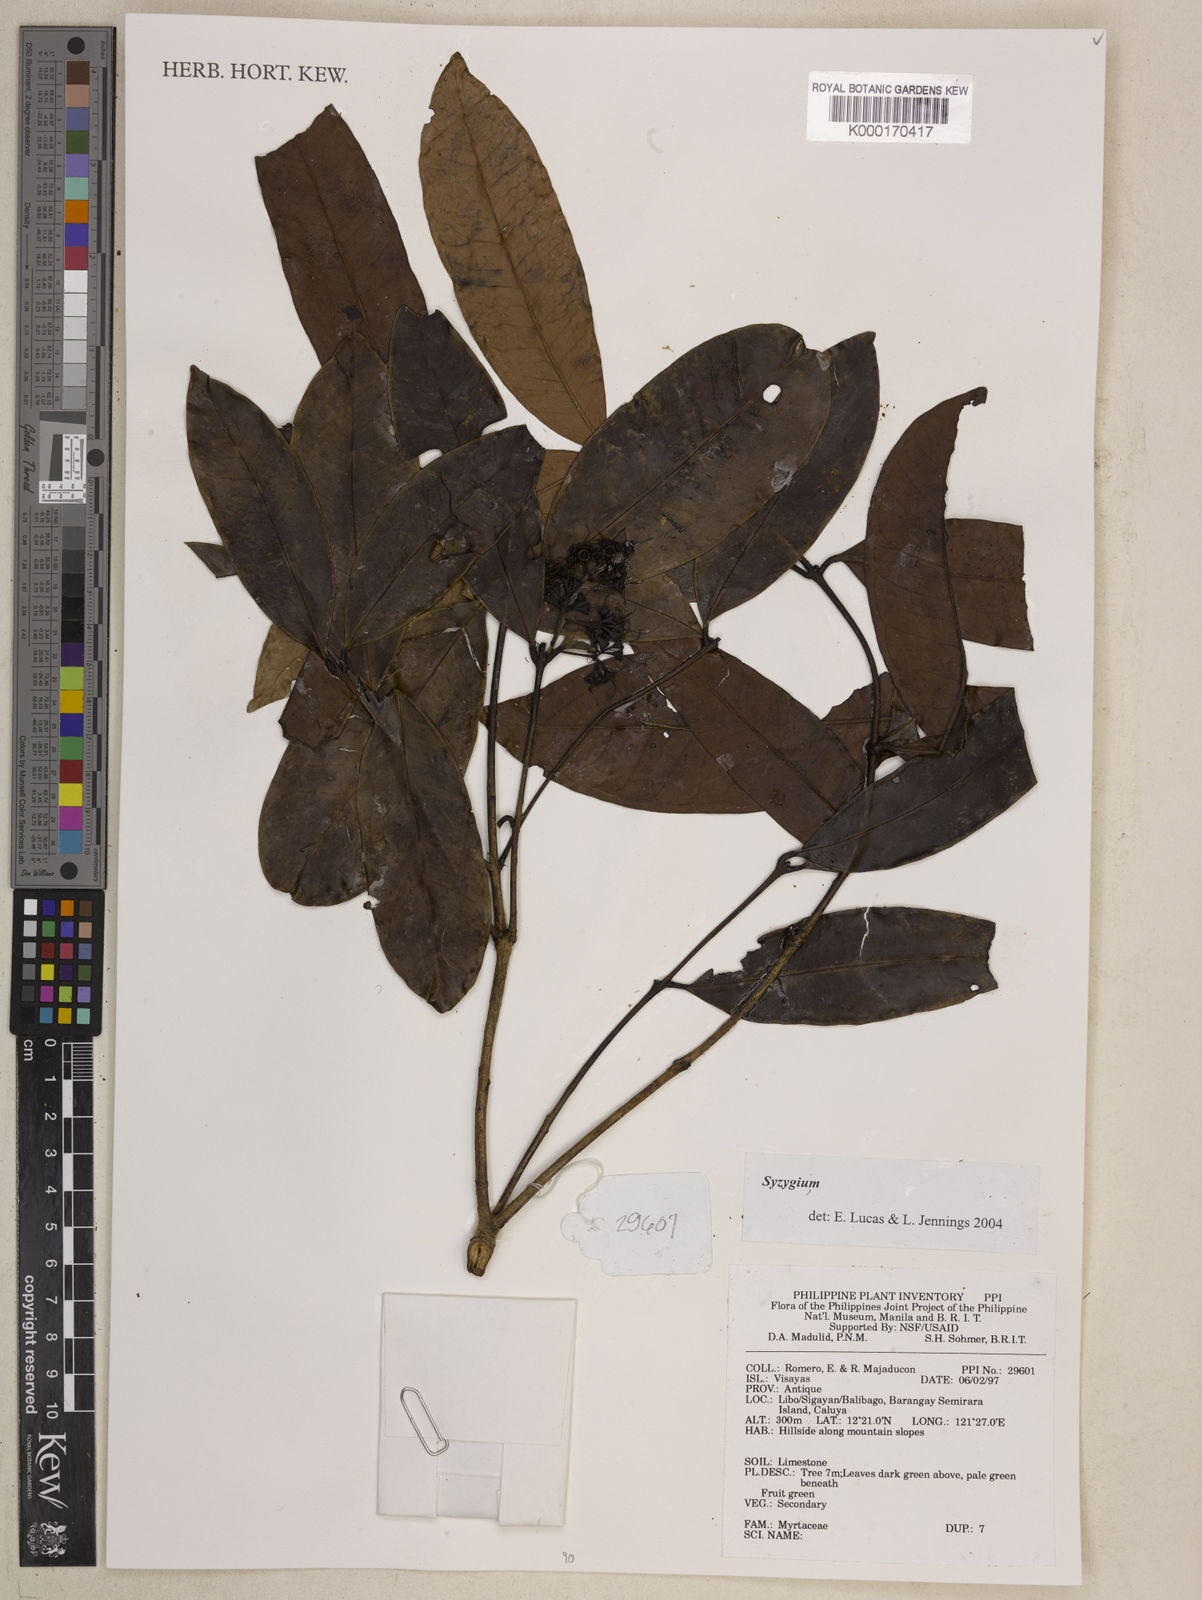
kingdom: Plantae
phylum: Tracheophyta
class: Magnoliopsida
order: Myrtales
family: Myrtaceae
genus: Syzygium
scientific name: Syzygium
